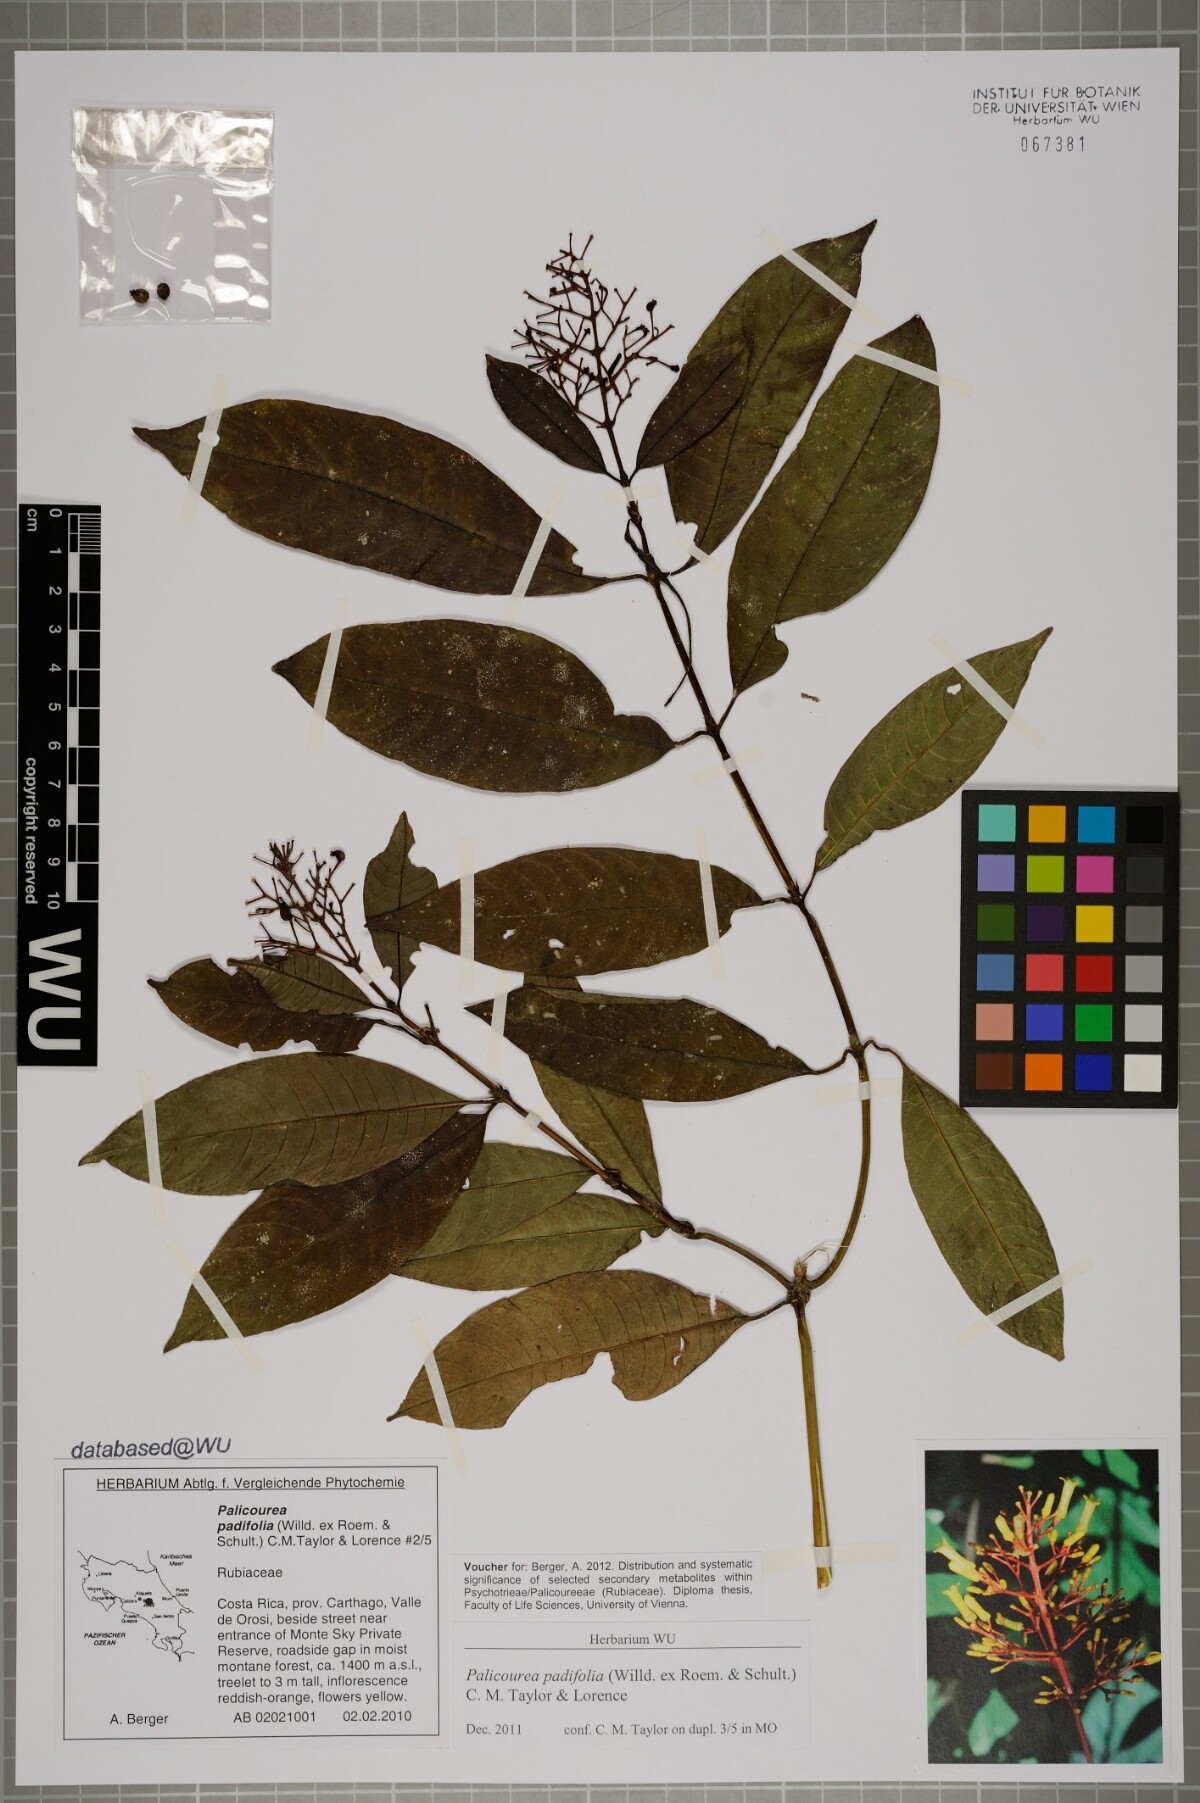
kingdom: Plantae
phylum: Tracheophyta
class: Magnoliopsida
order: Gentianales
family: Rubiaceae
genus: Palicourea
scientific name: Palicourea padifolia
